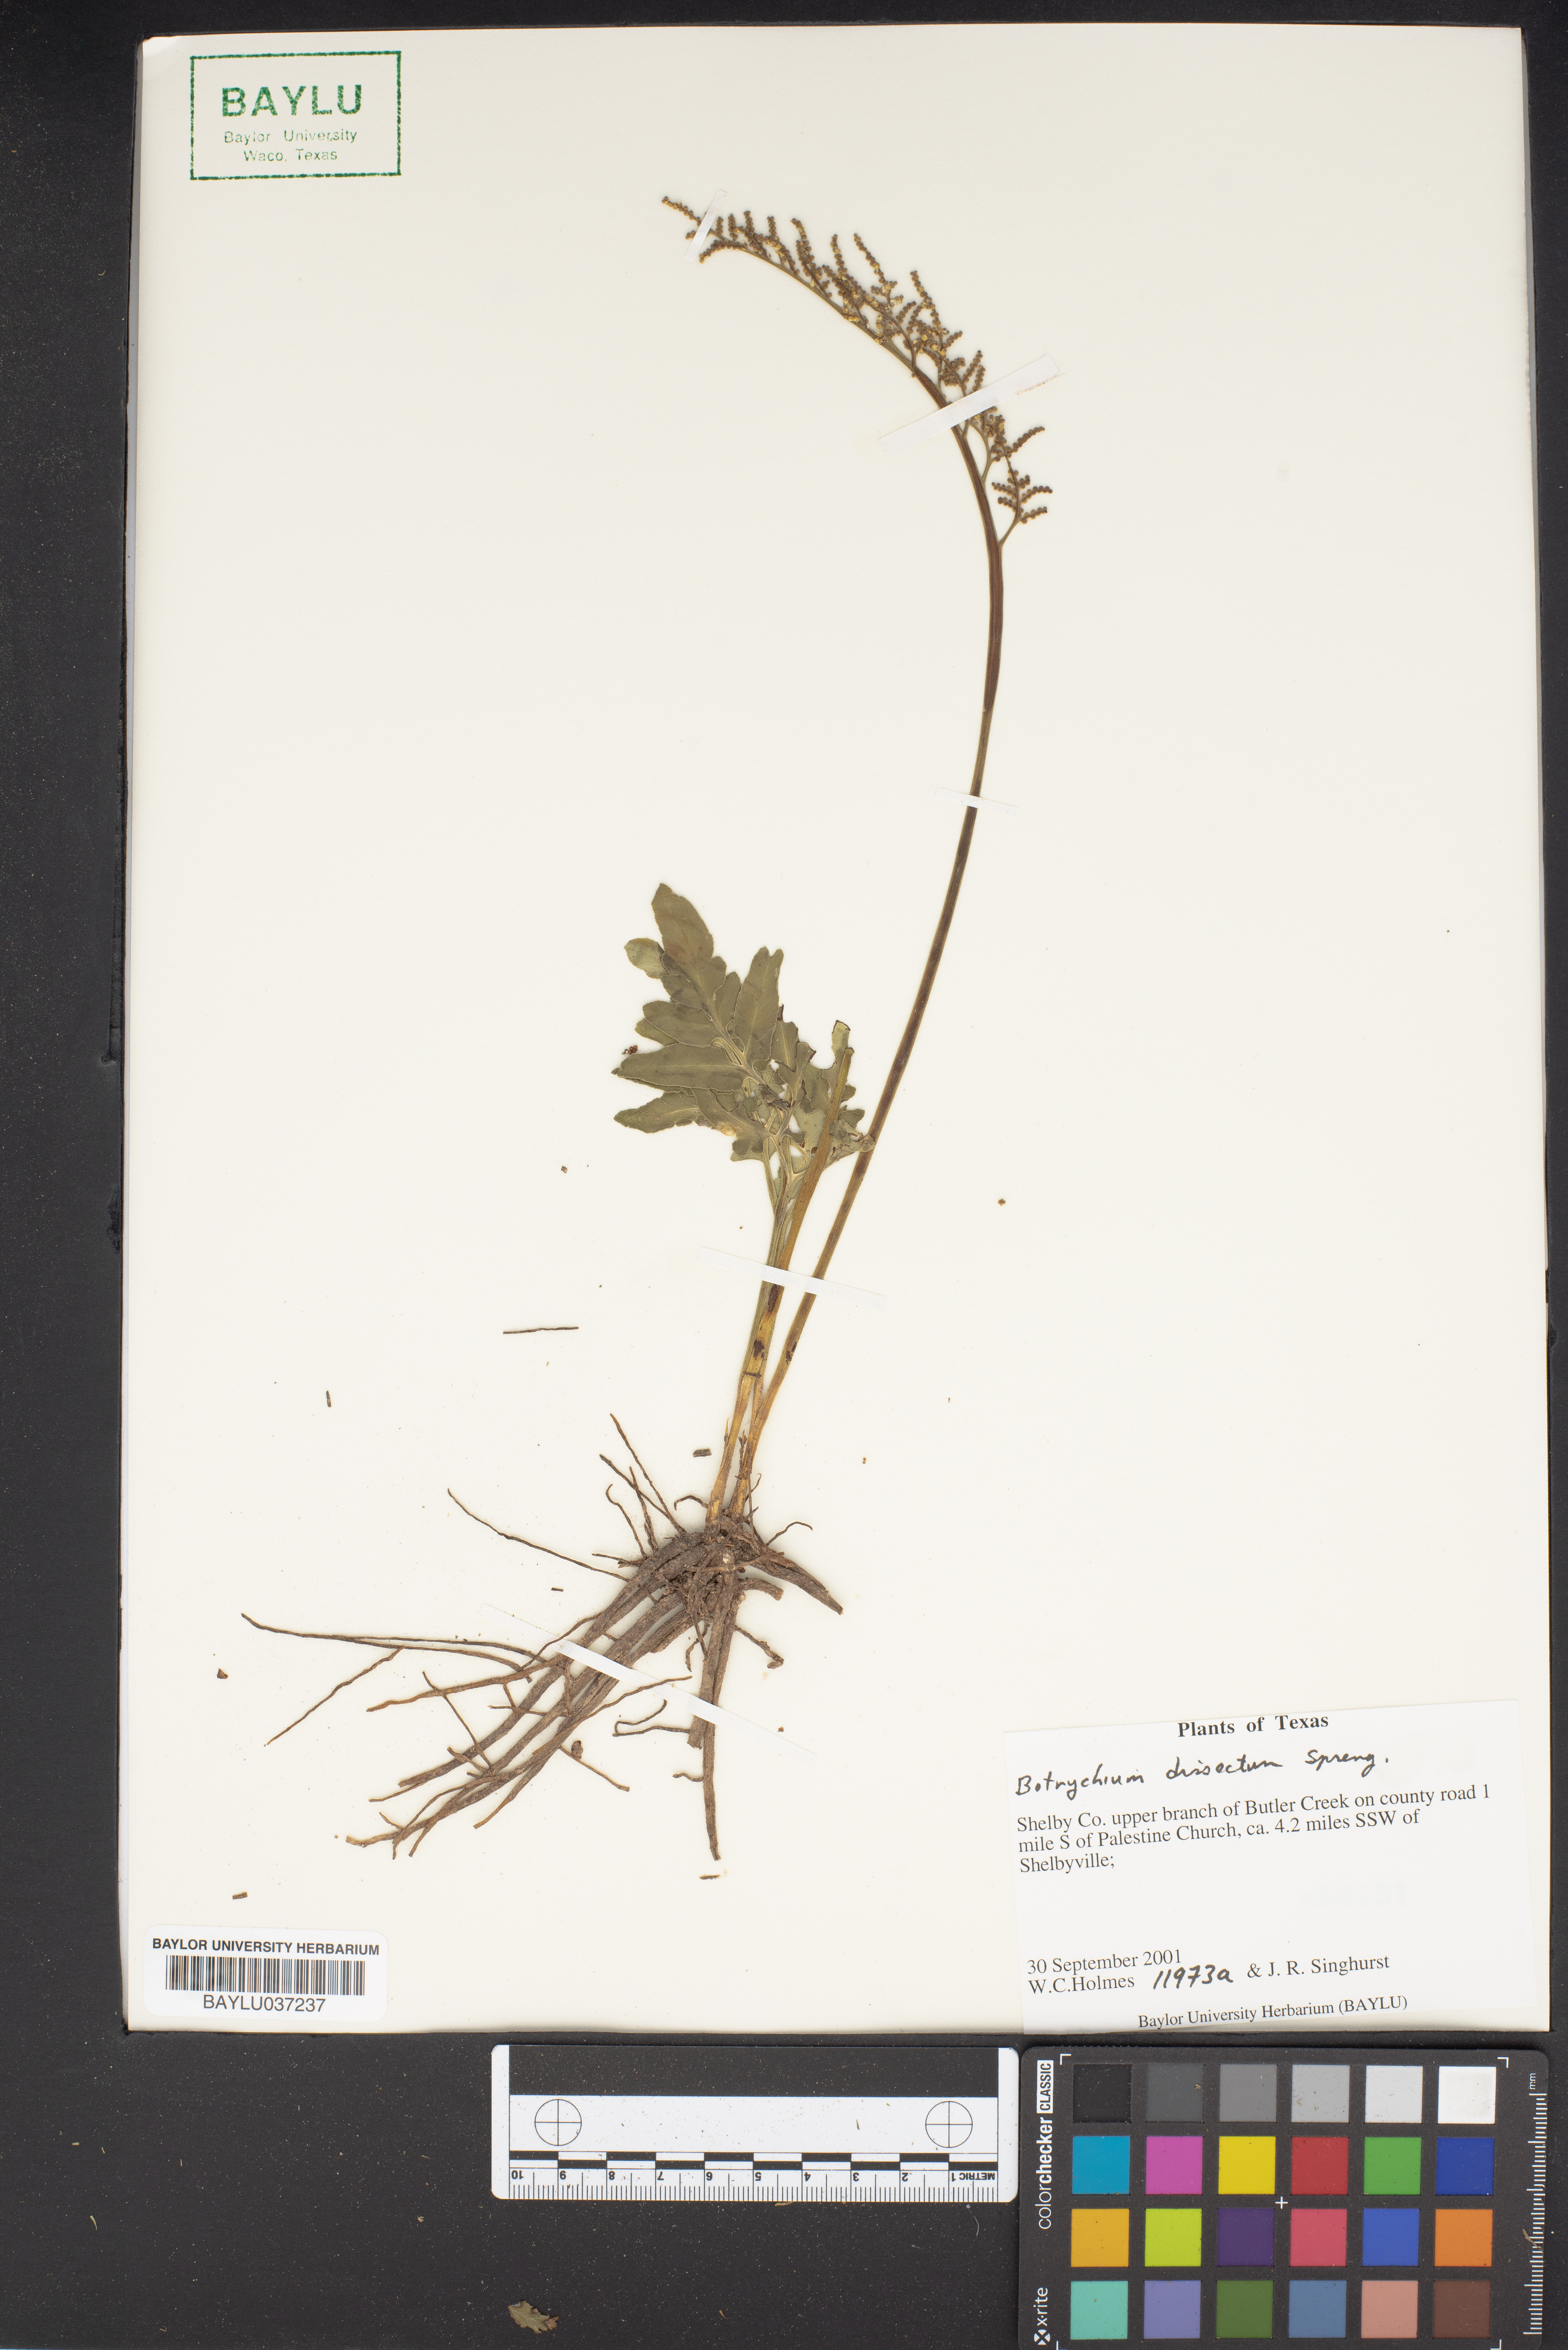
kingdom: Plantae
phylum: Tracheophyta
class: Polypodiopsida
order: Ophioglossales
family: Ophioglossaceae
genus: Sceptridium
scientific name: Sceptridium dissectum
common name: Cut-leaved grapefern
